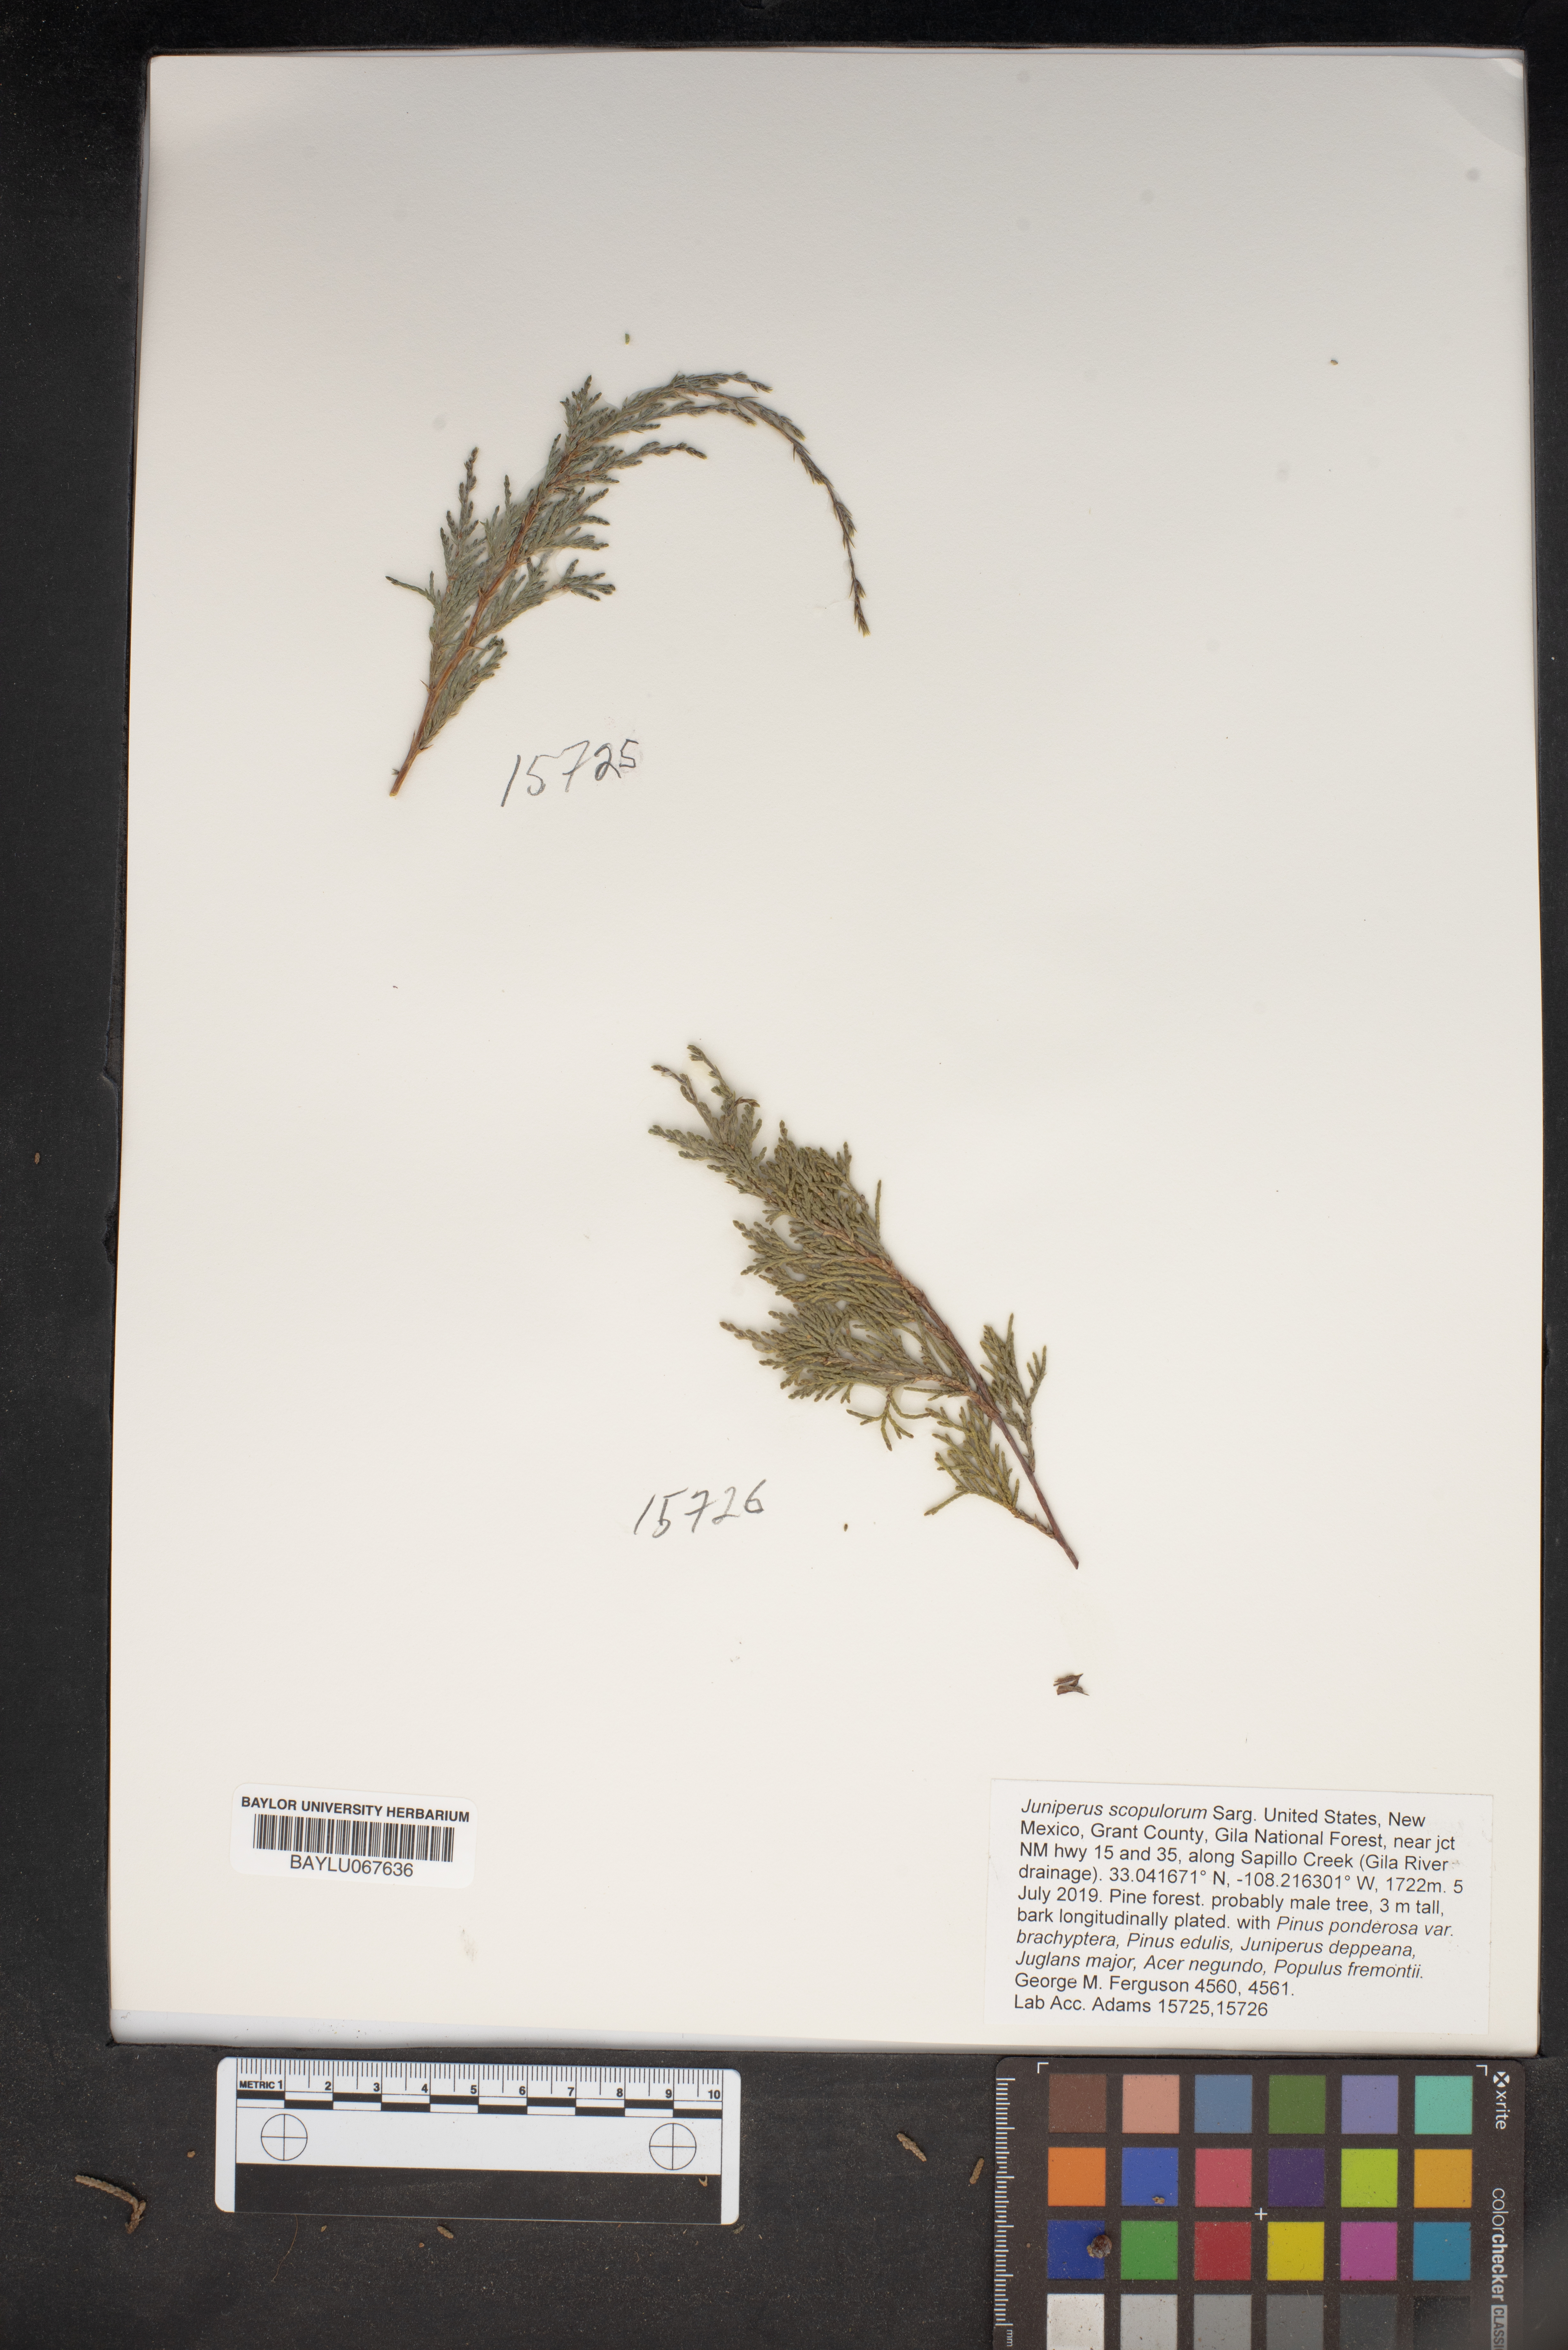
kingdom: Plantae
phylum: Tracheophyta
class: Pinopsida
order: Pinales
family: Cupressaceae
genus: Juniperus
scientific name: Juniperus scopulorum
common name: Rocky mountain juniper
